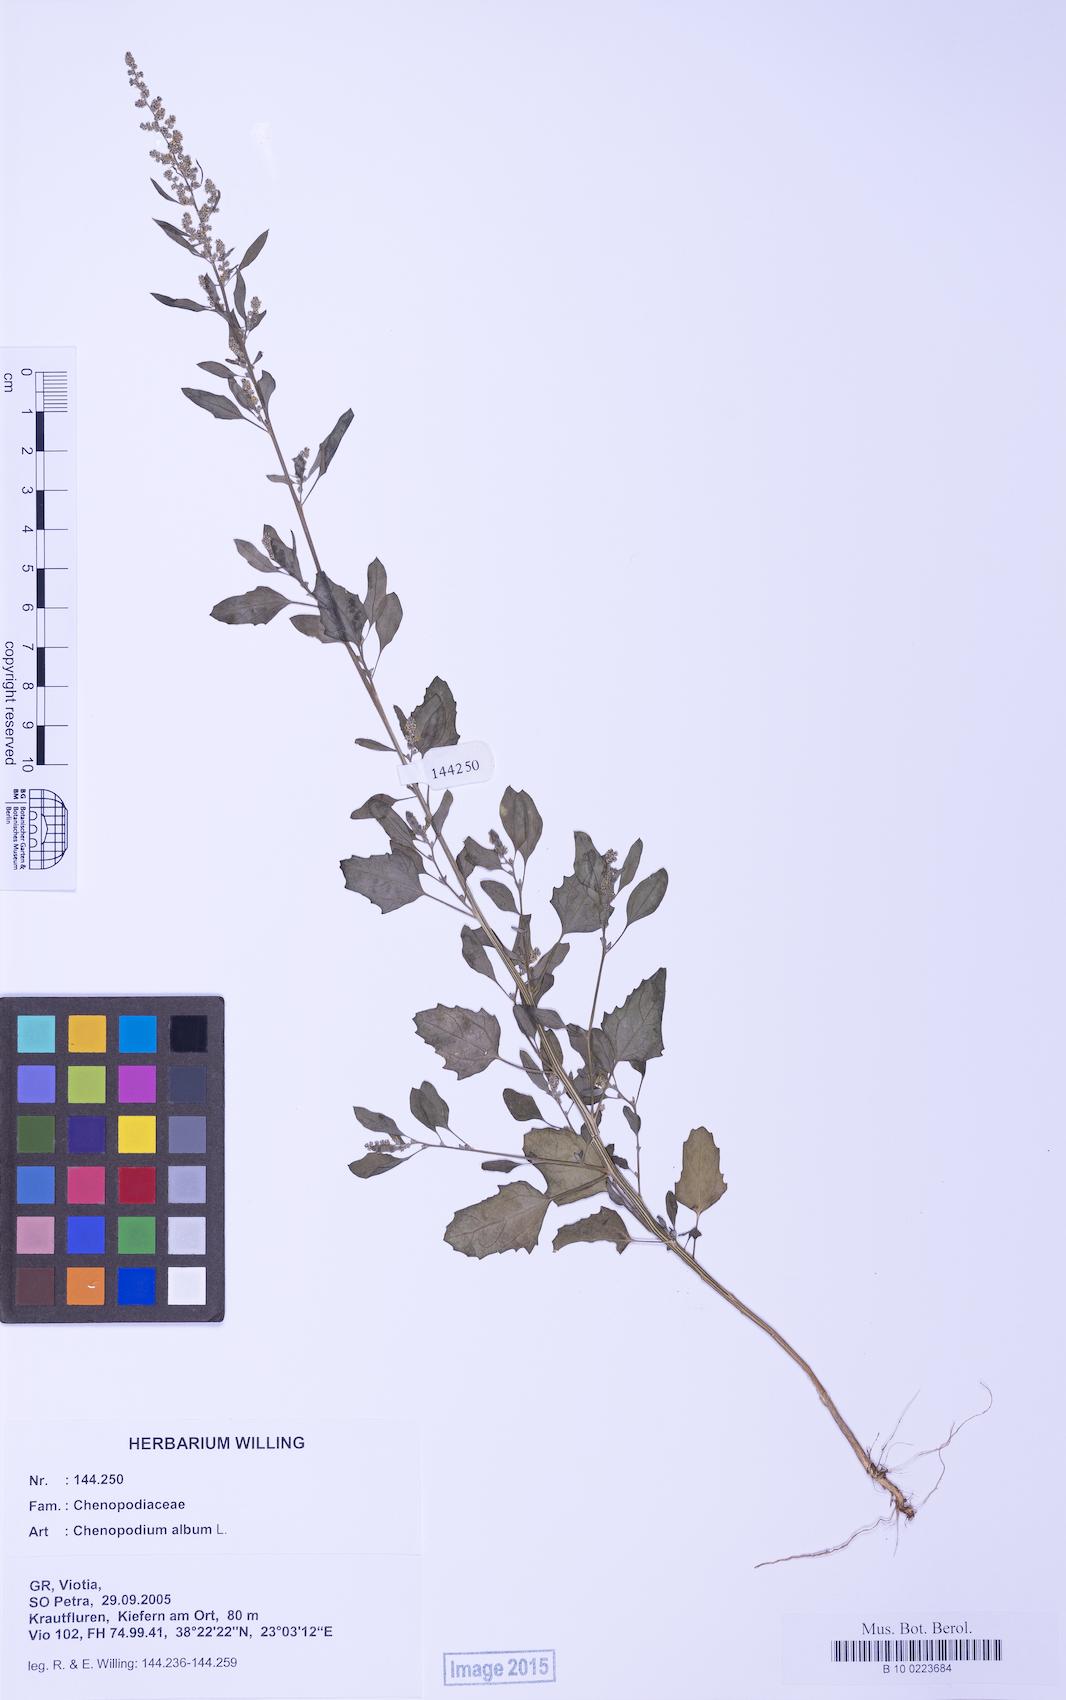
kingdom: Plantae
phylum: Tracheophyta
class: Magnoliopsida
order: Caryophyllales
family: Amaranthaceae
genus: Chenopodium
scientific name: Chenopodium album
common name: Fat-hen
